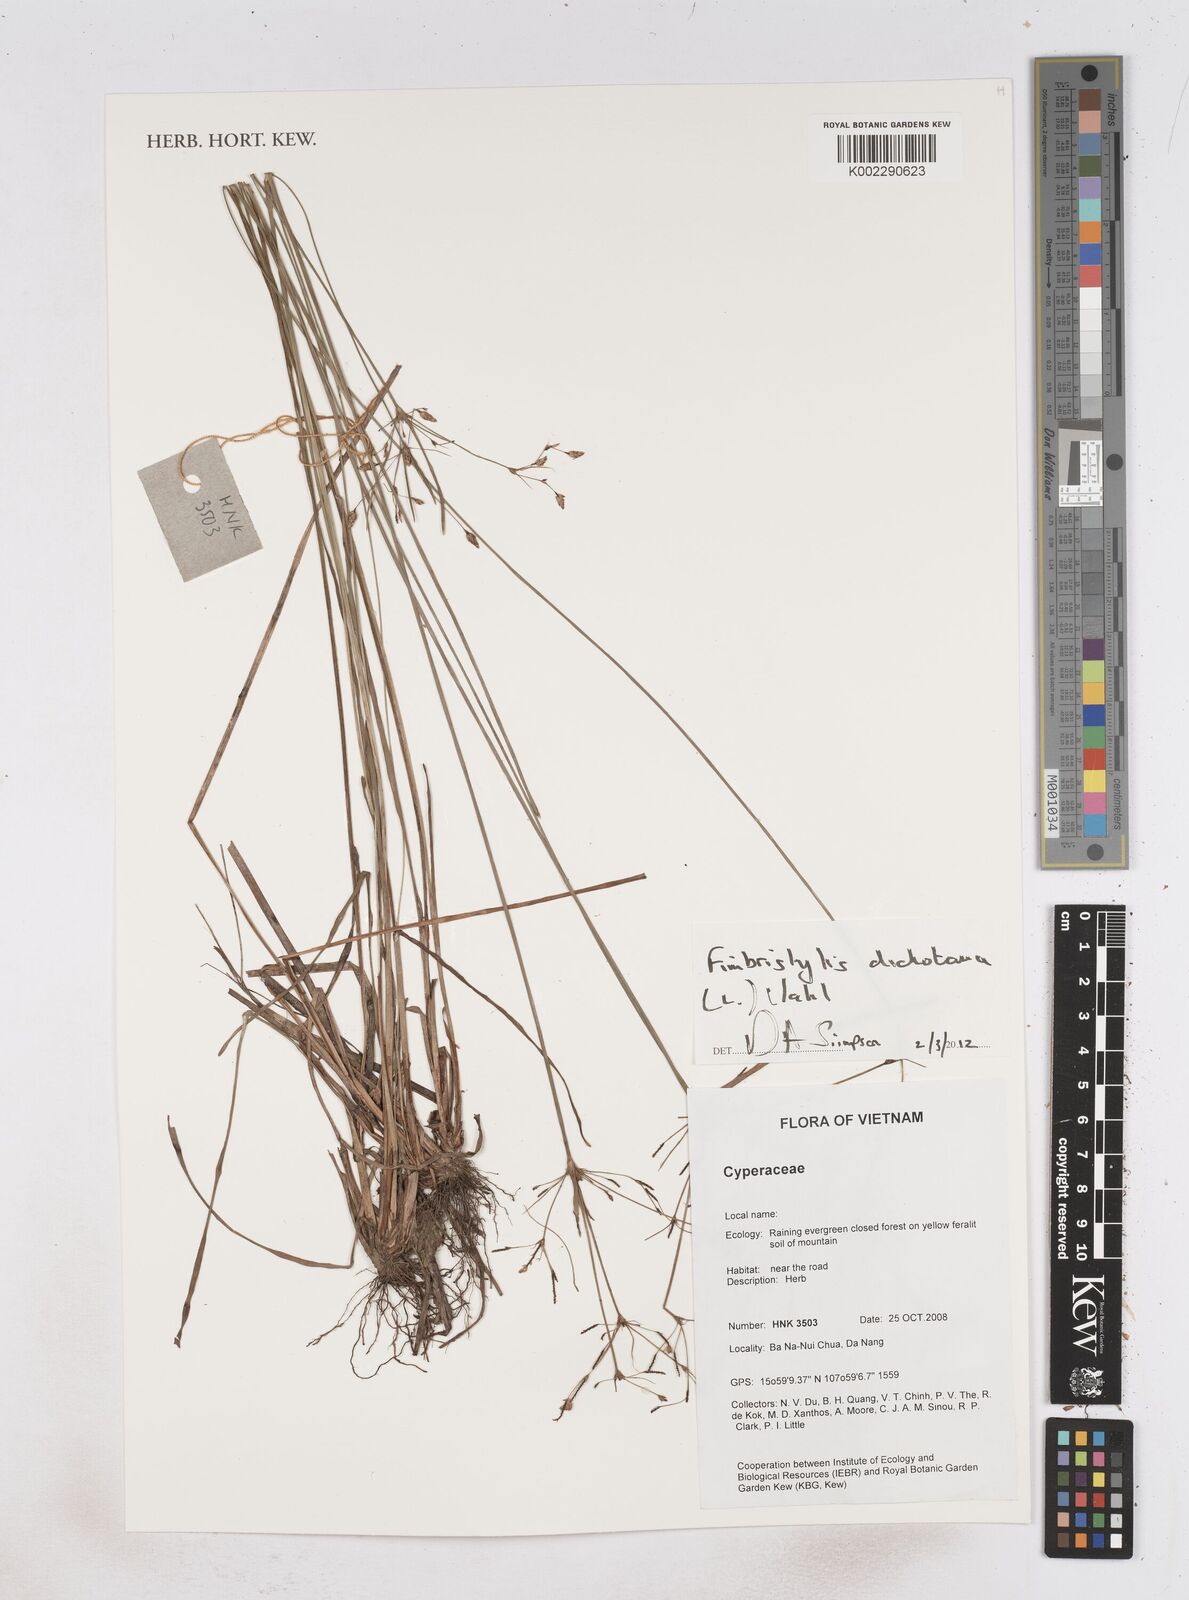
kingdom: Plantae
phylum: Tracheophyta
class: Liliopsida
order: Poales
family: Cyperaceae
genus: Fimbristylis
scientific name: Fimbristylis dichotoma
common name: Forked fimbry
